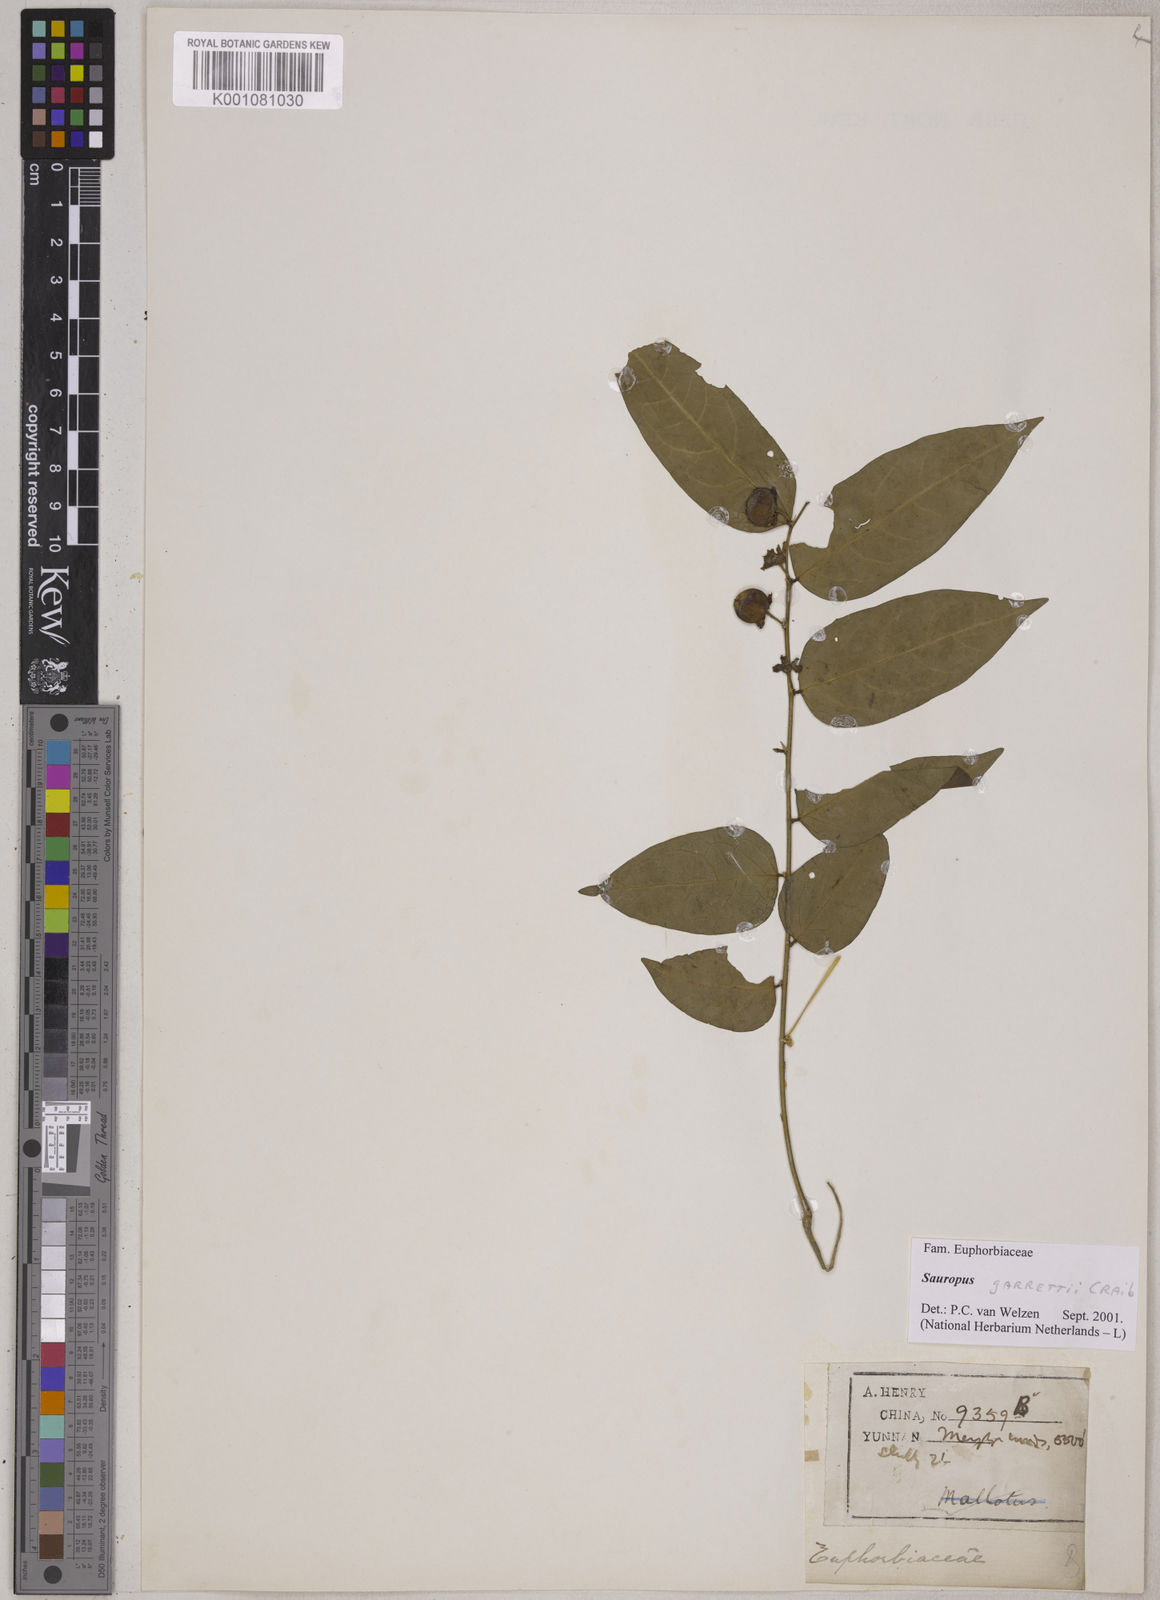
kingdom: Plantae
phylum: Tracheophyta
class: Magnoliopsida
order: Malpighiales
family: Phyllanthaceae
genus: Breynia
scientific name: Breynia garrettii
